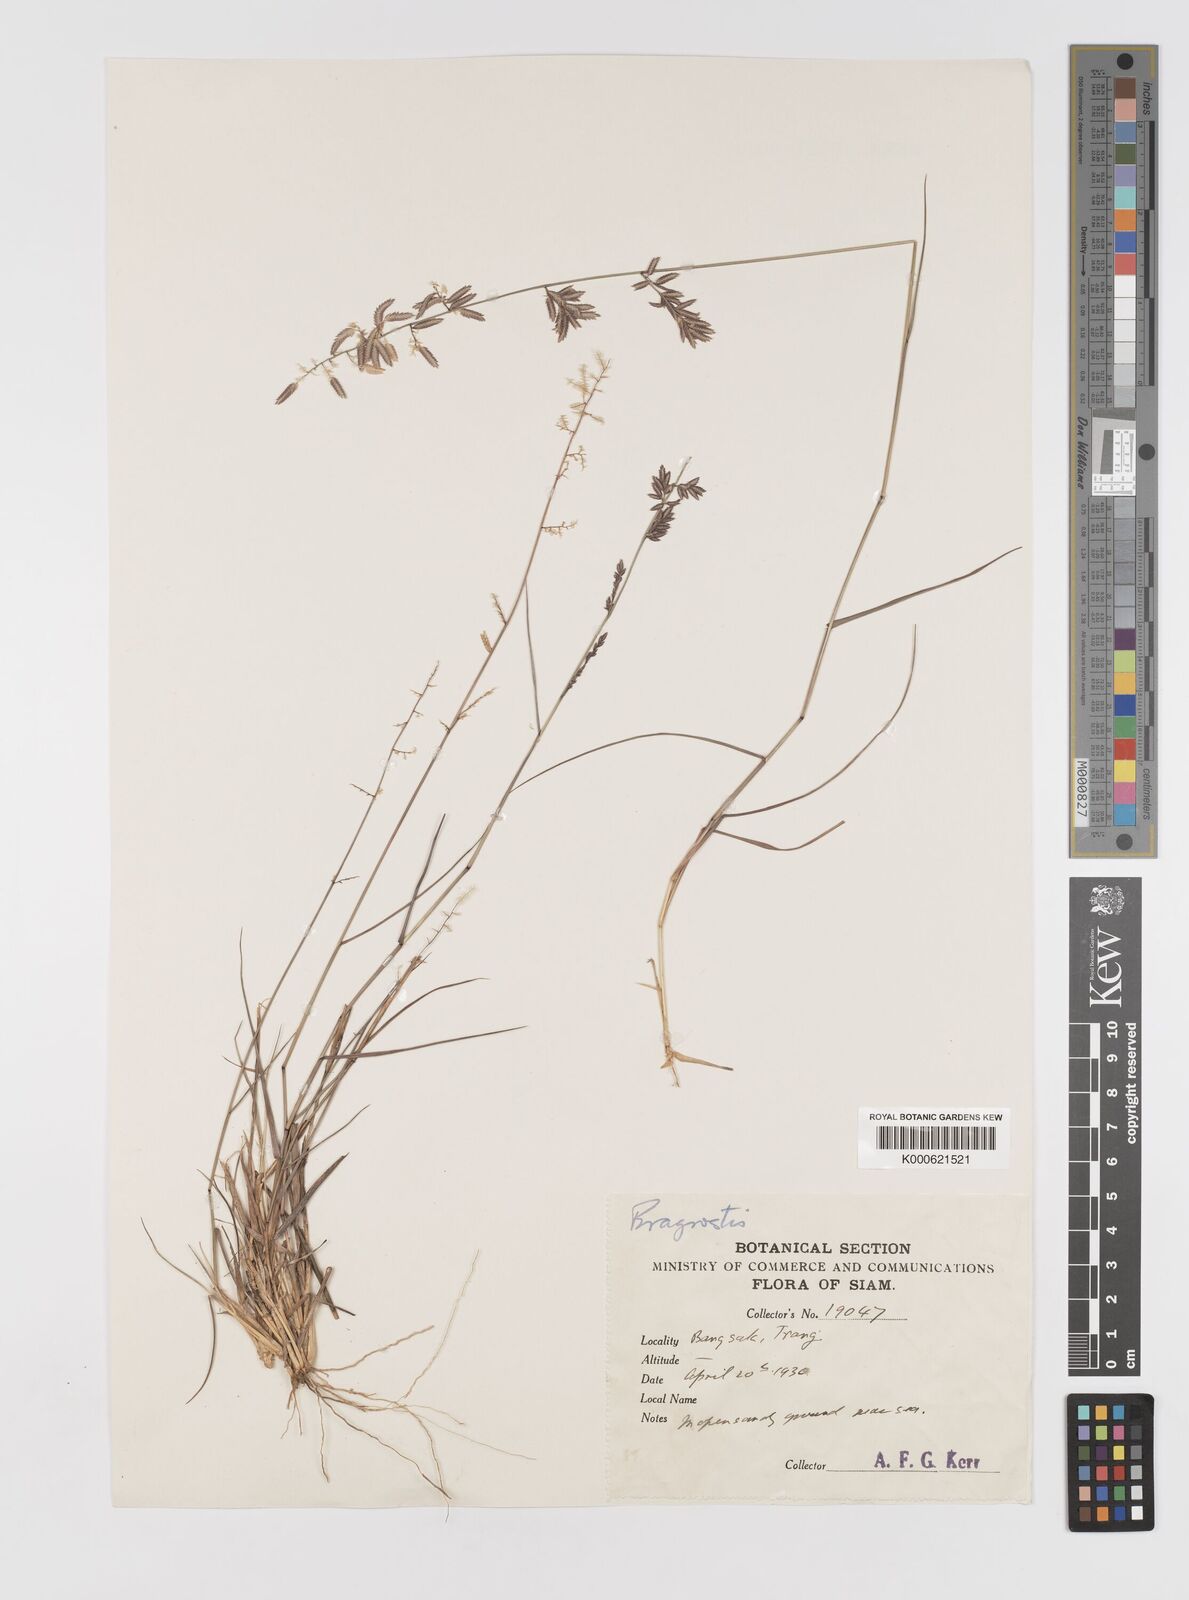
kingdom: Plantae
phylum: Tracheophyta
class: Liliopsida
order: Poales
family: Poaceae
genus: Eragrostis
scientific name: Eragrostis
